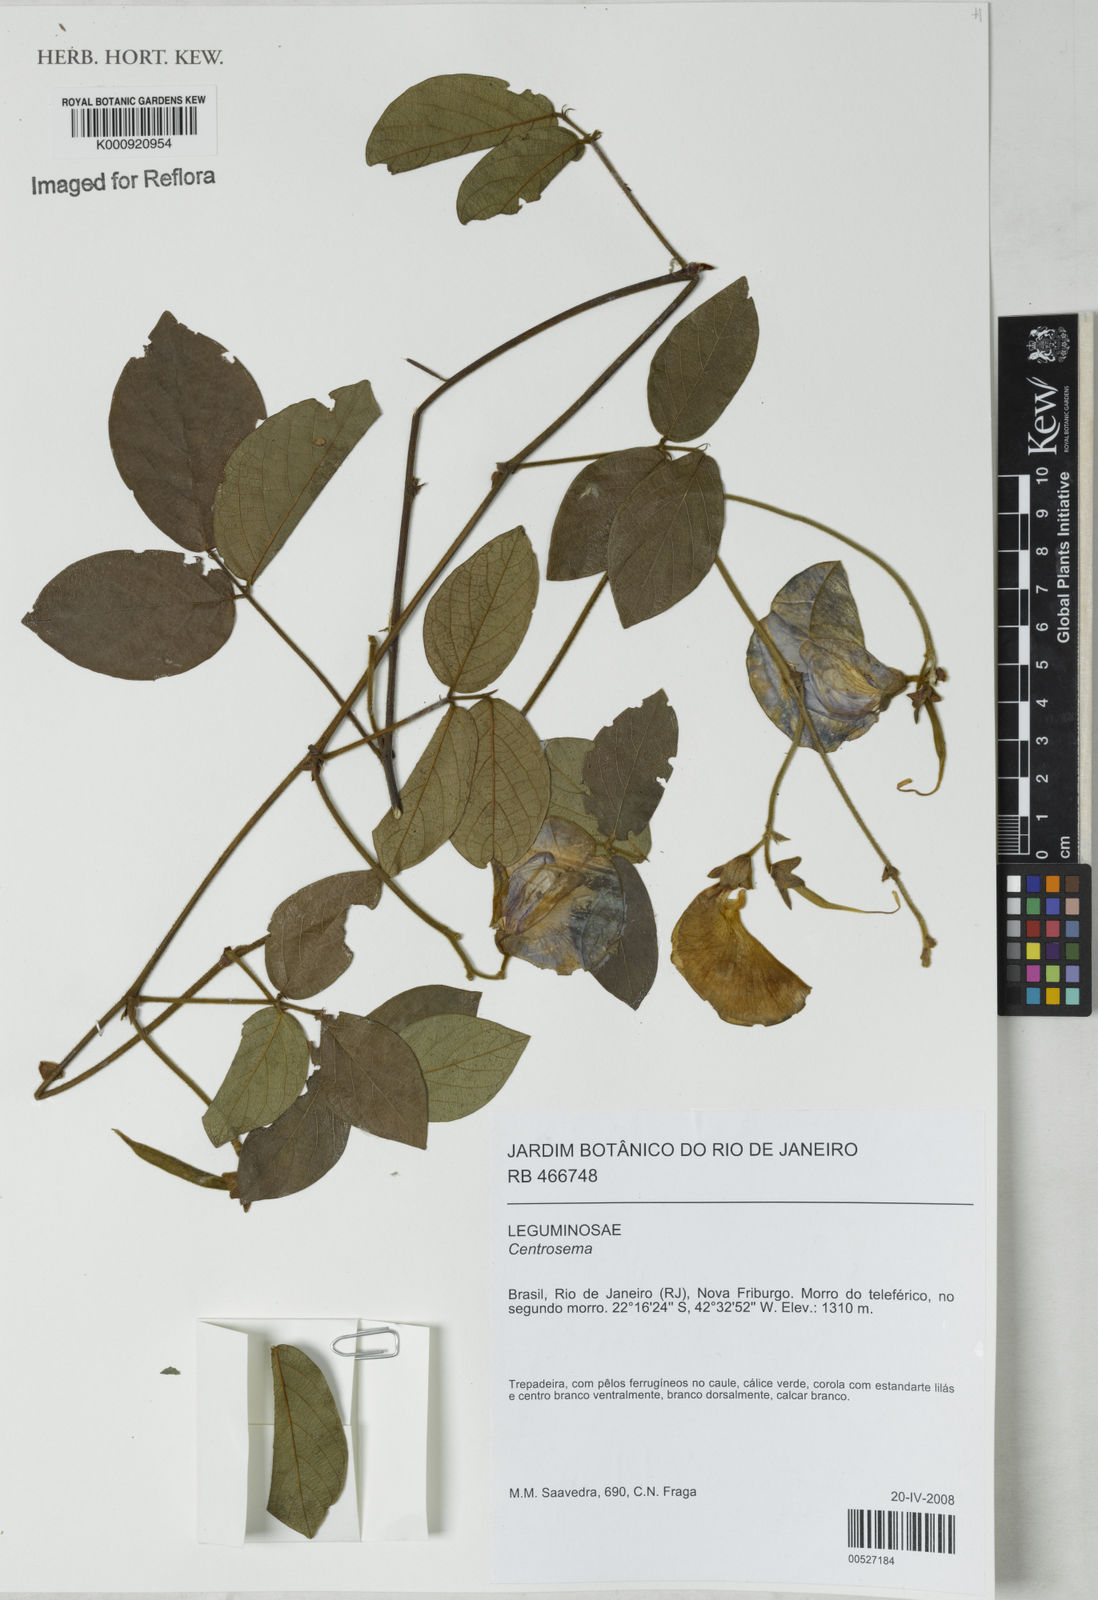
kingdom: Plantae
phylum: Tracheophyta
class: Magnoliopsida
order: Fabales
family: Fabaceae
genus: Centrosema
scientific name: Centrosema
